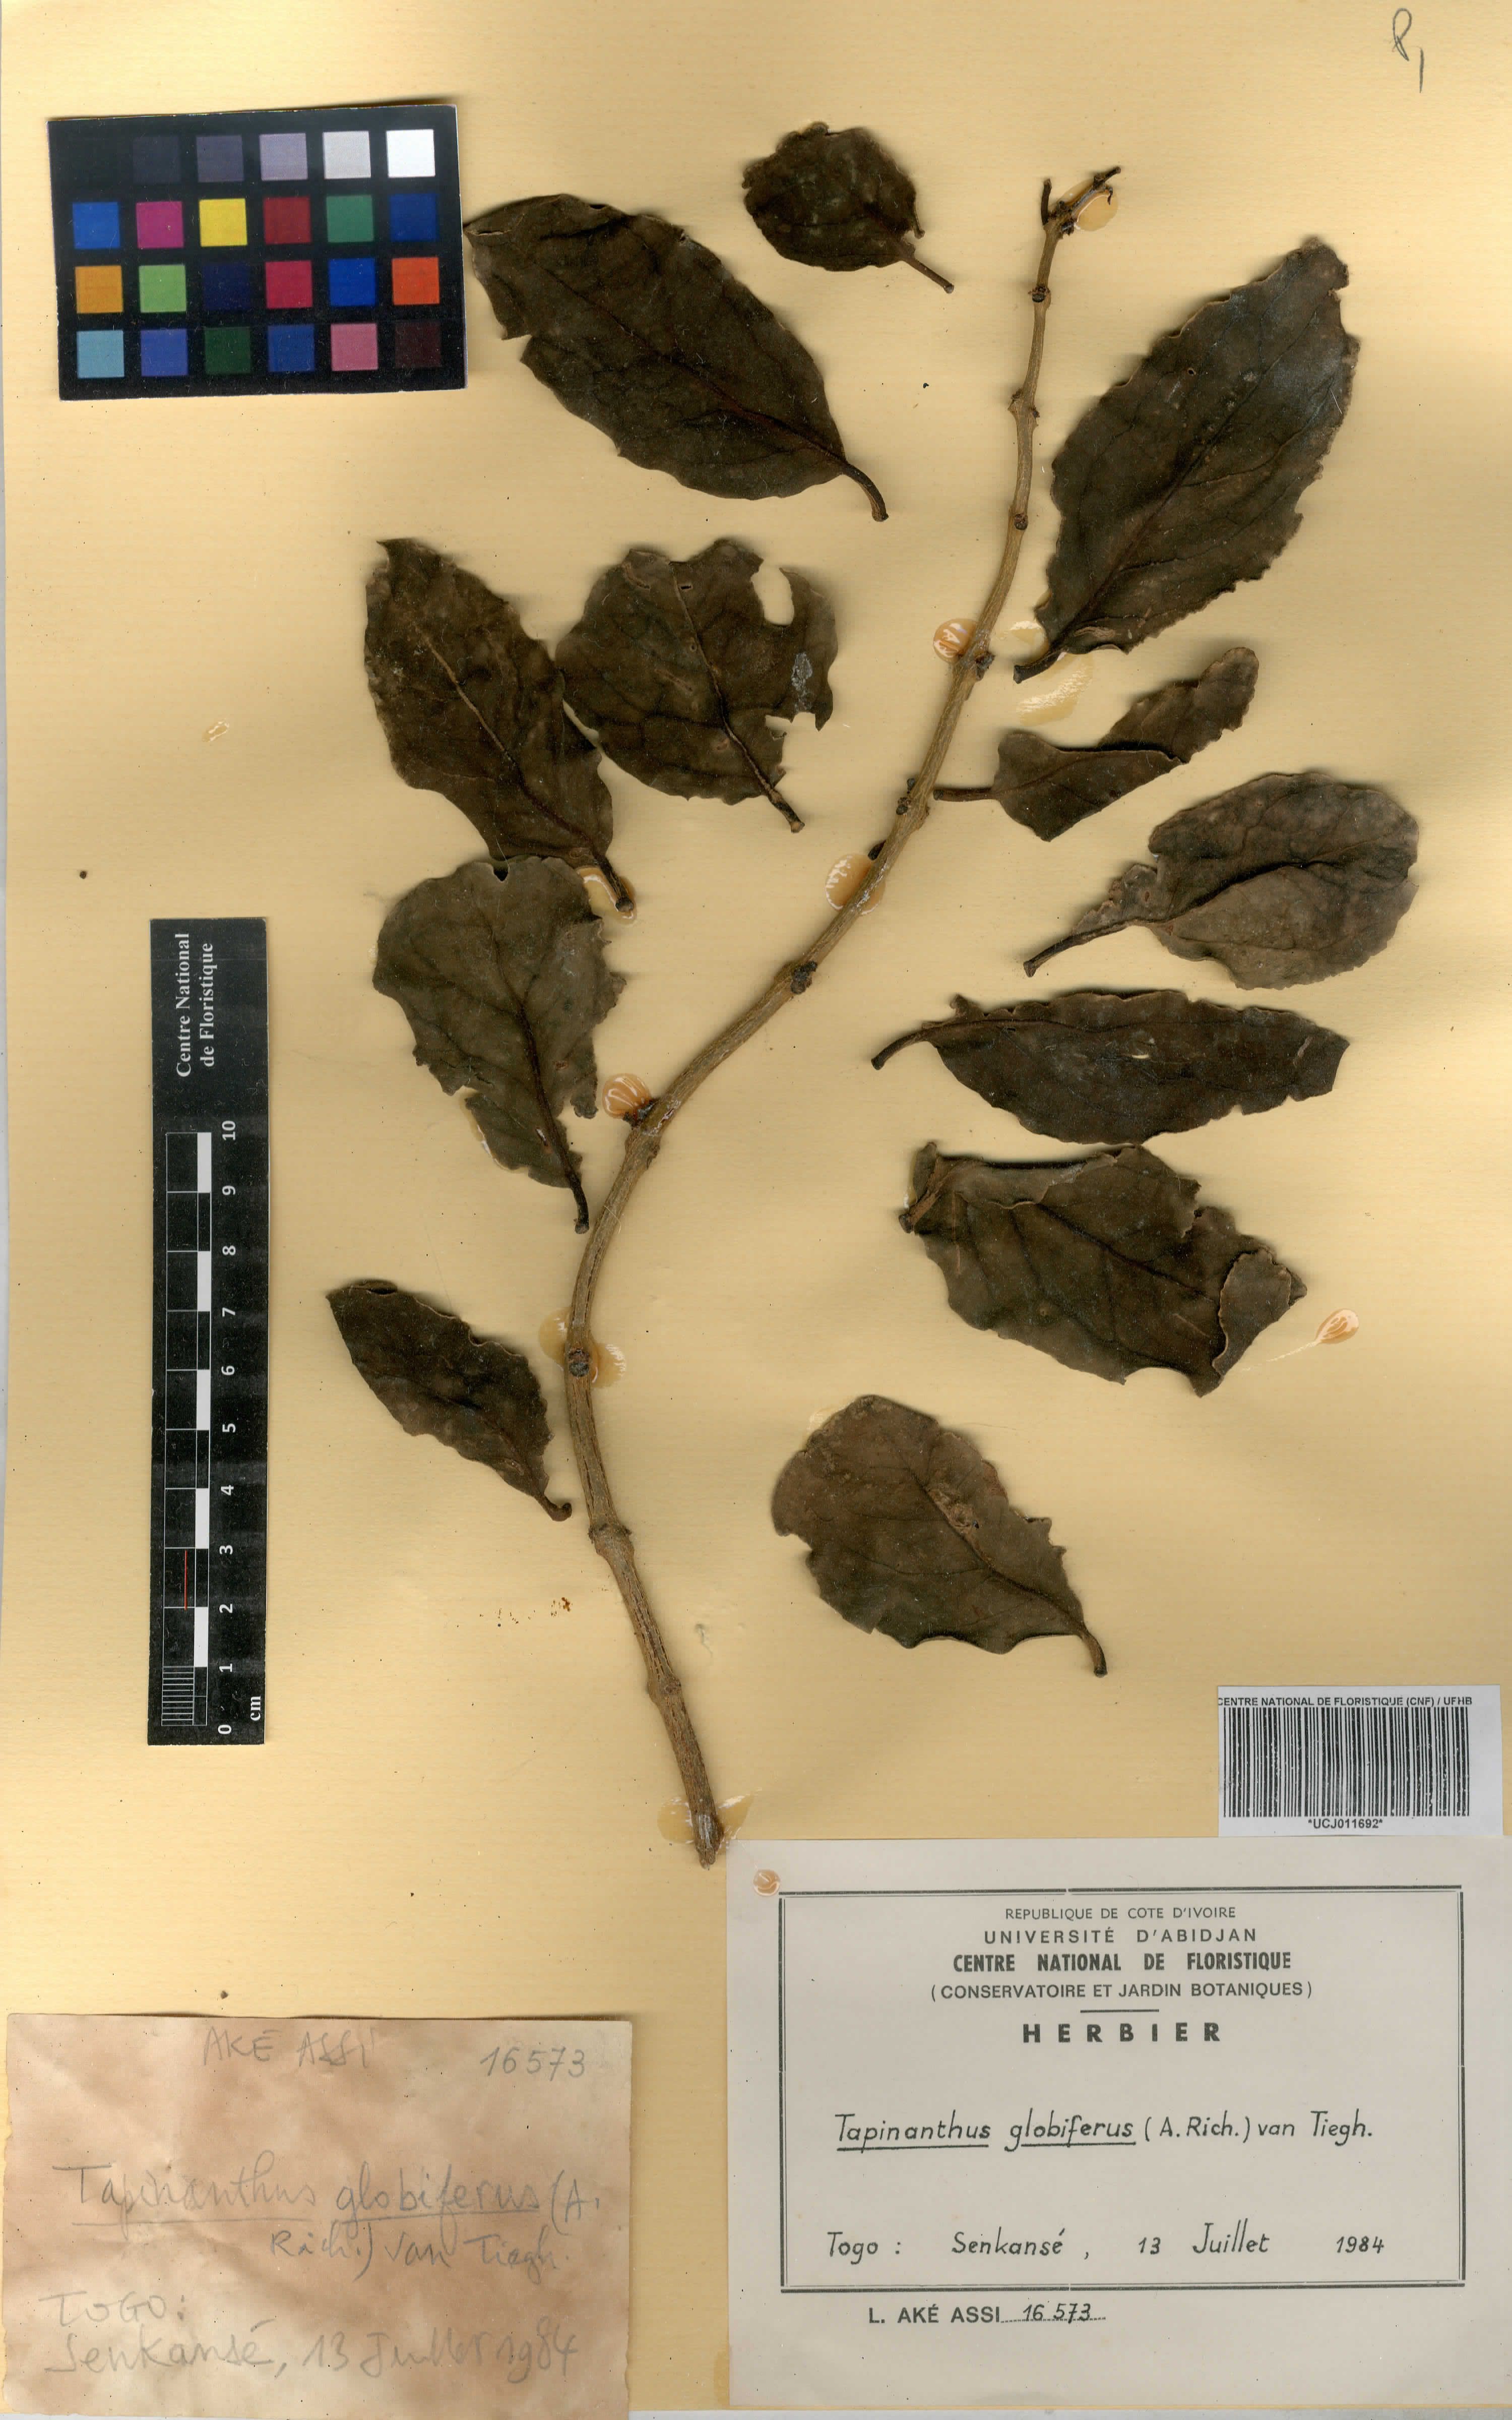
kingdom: Plantae
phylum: Tracheophyta
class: Magnoliopsida
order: Santalales
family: Loranthaceae
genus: Tapinanthus
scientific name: Tapinanthus globiferus
